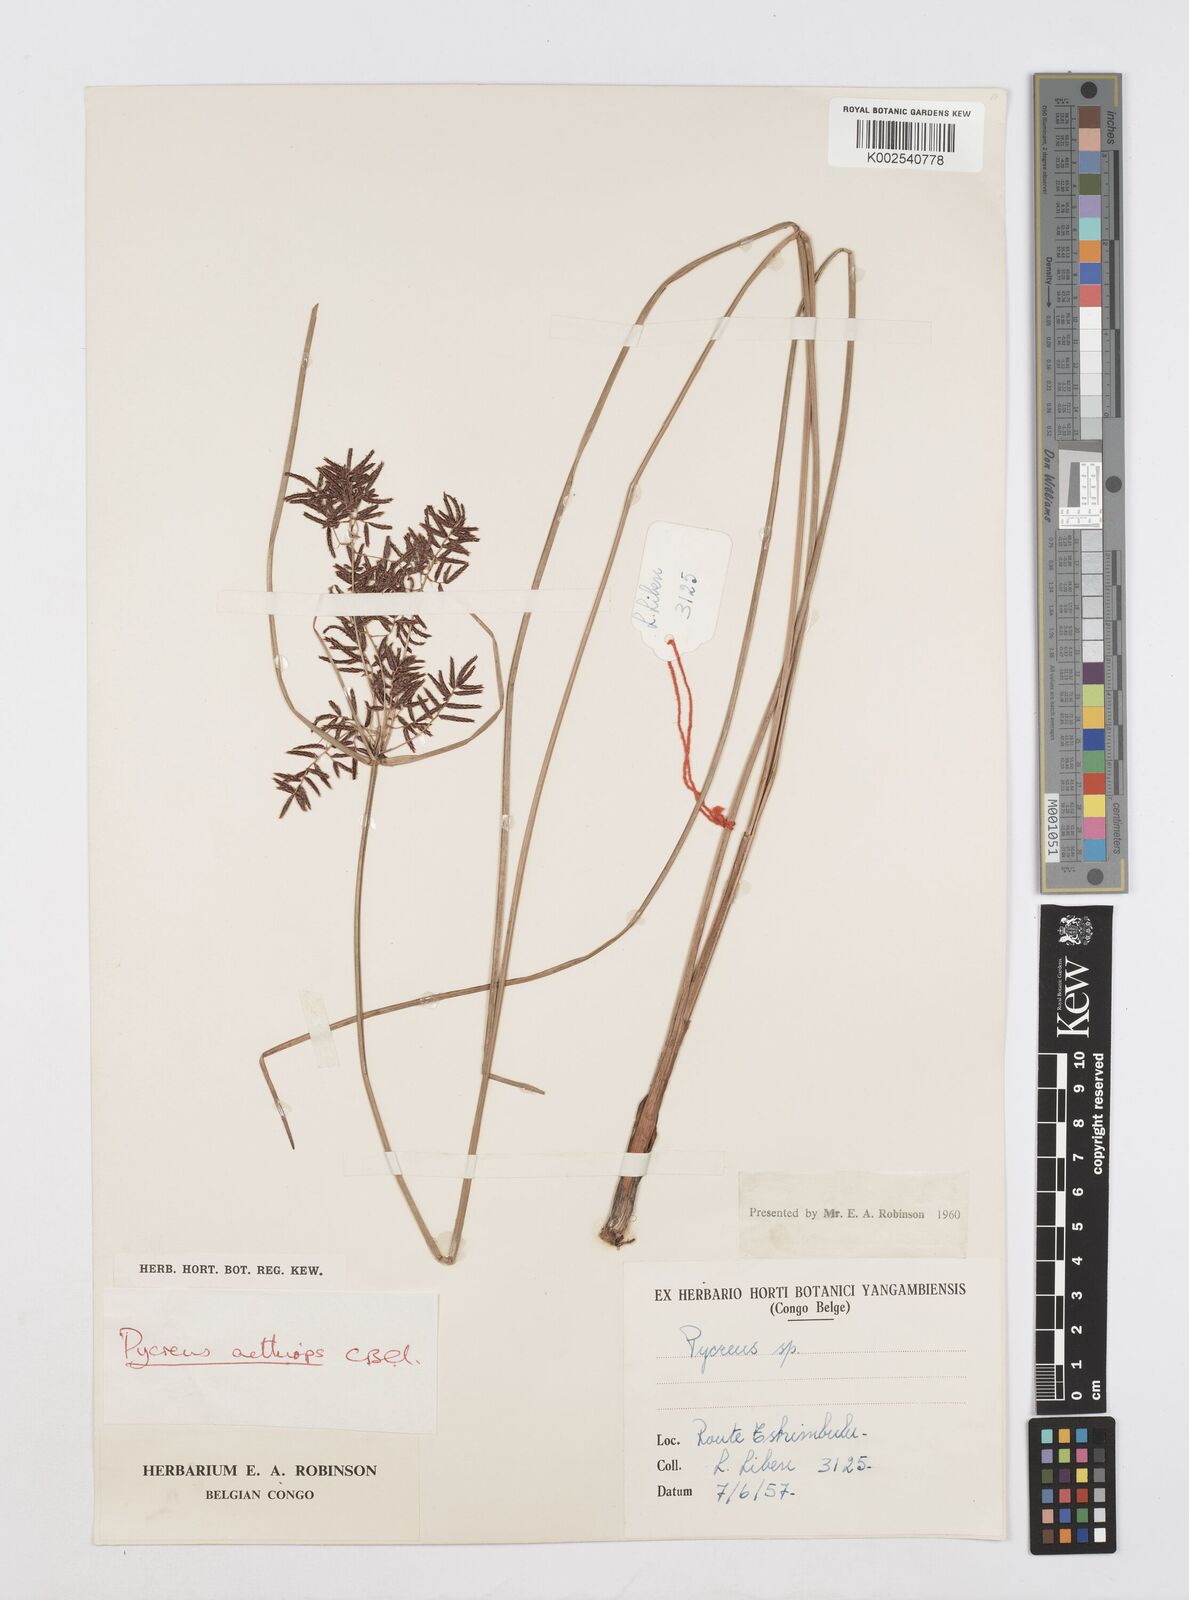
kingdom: Plantae
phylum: Tracheophyta
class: Liliopsida
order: Poales
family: Cyperaceae
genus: Cyperus
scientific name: Cyperus aethiops
